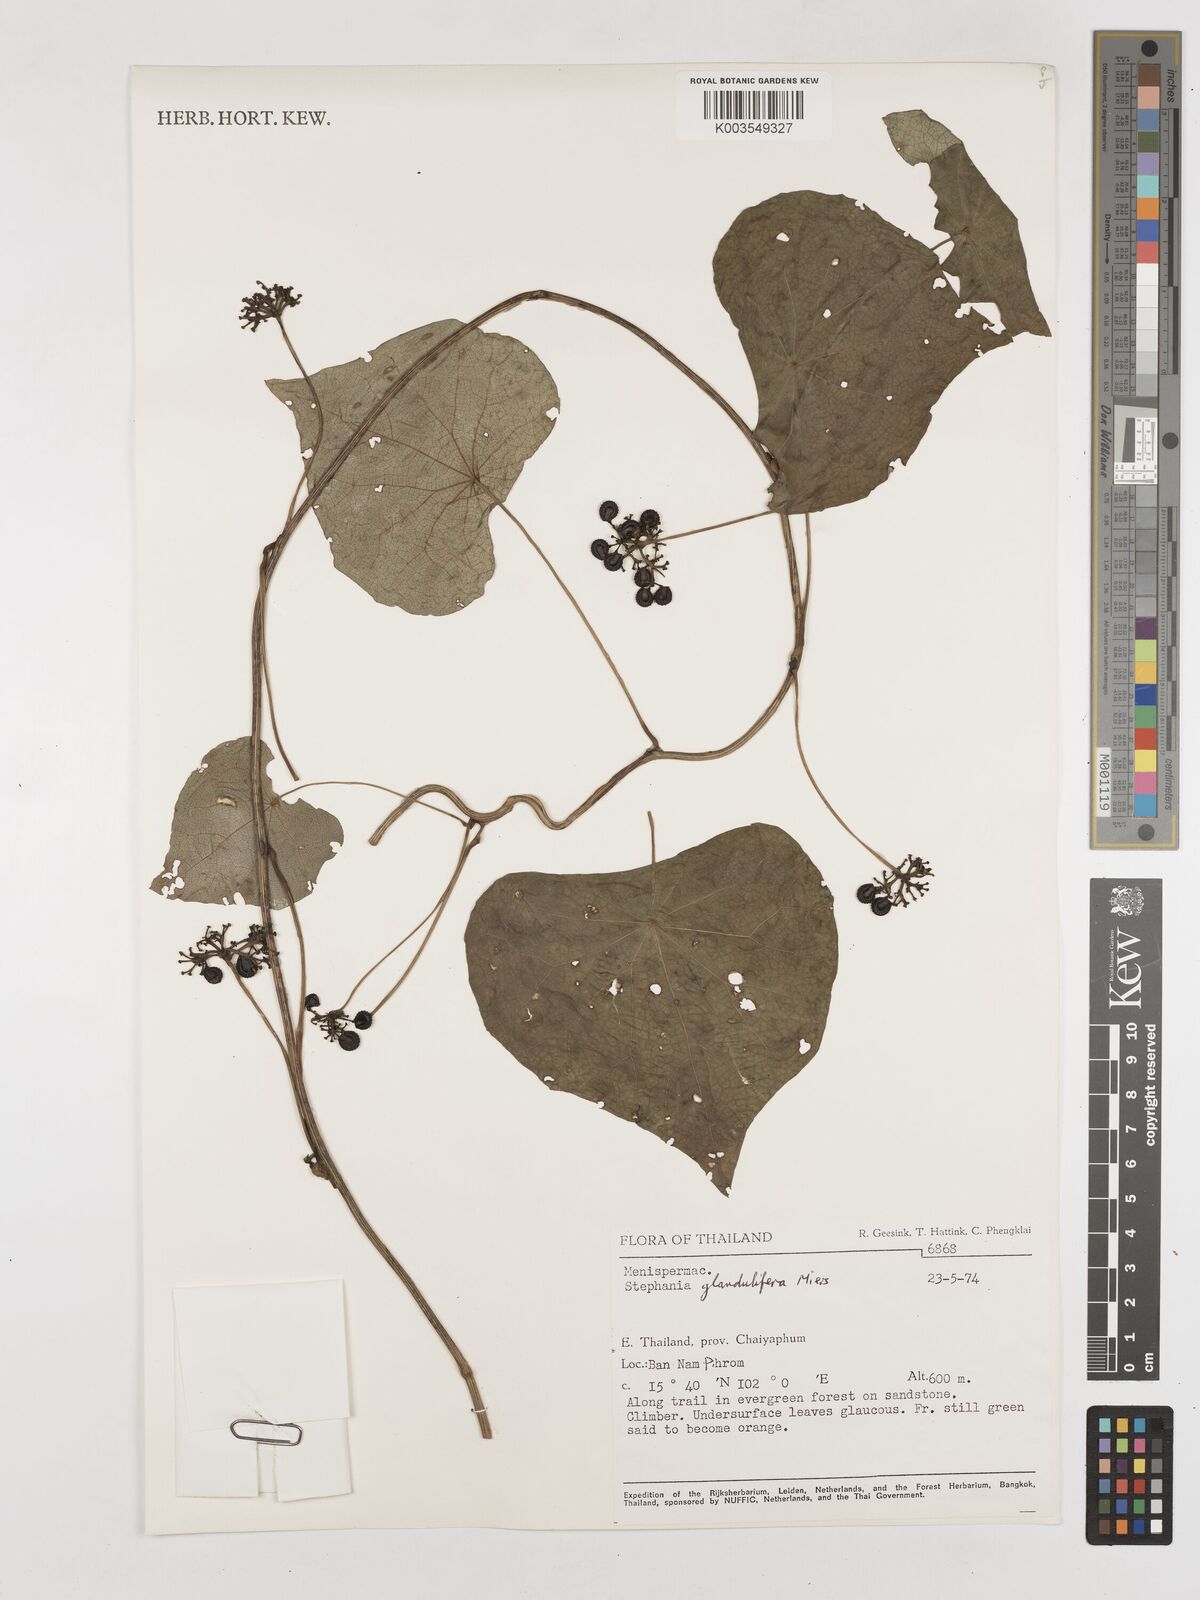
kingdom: Plantae
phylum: Tracheophyta
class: Magnoliopsida
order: Ranunculales
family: Menispermaceae
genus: Stephania
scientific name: Stephania glandulifera
